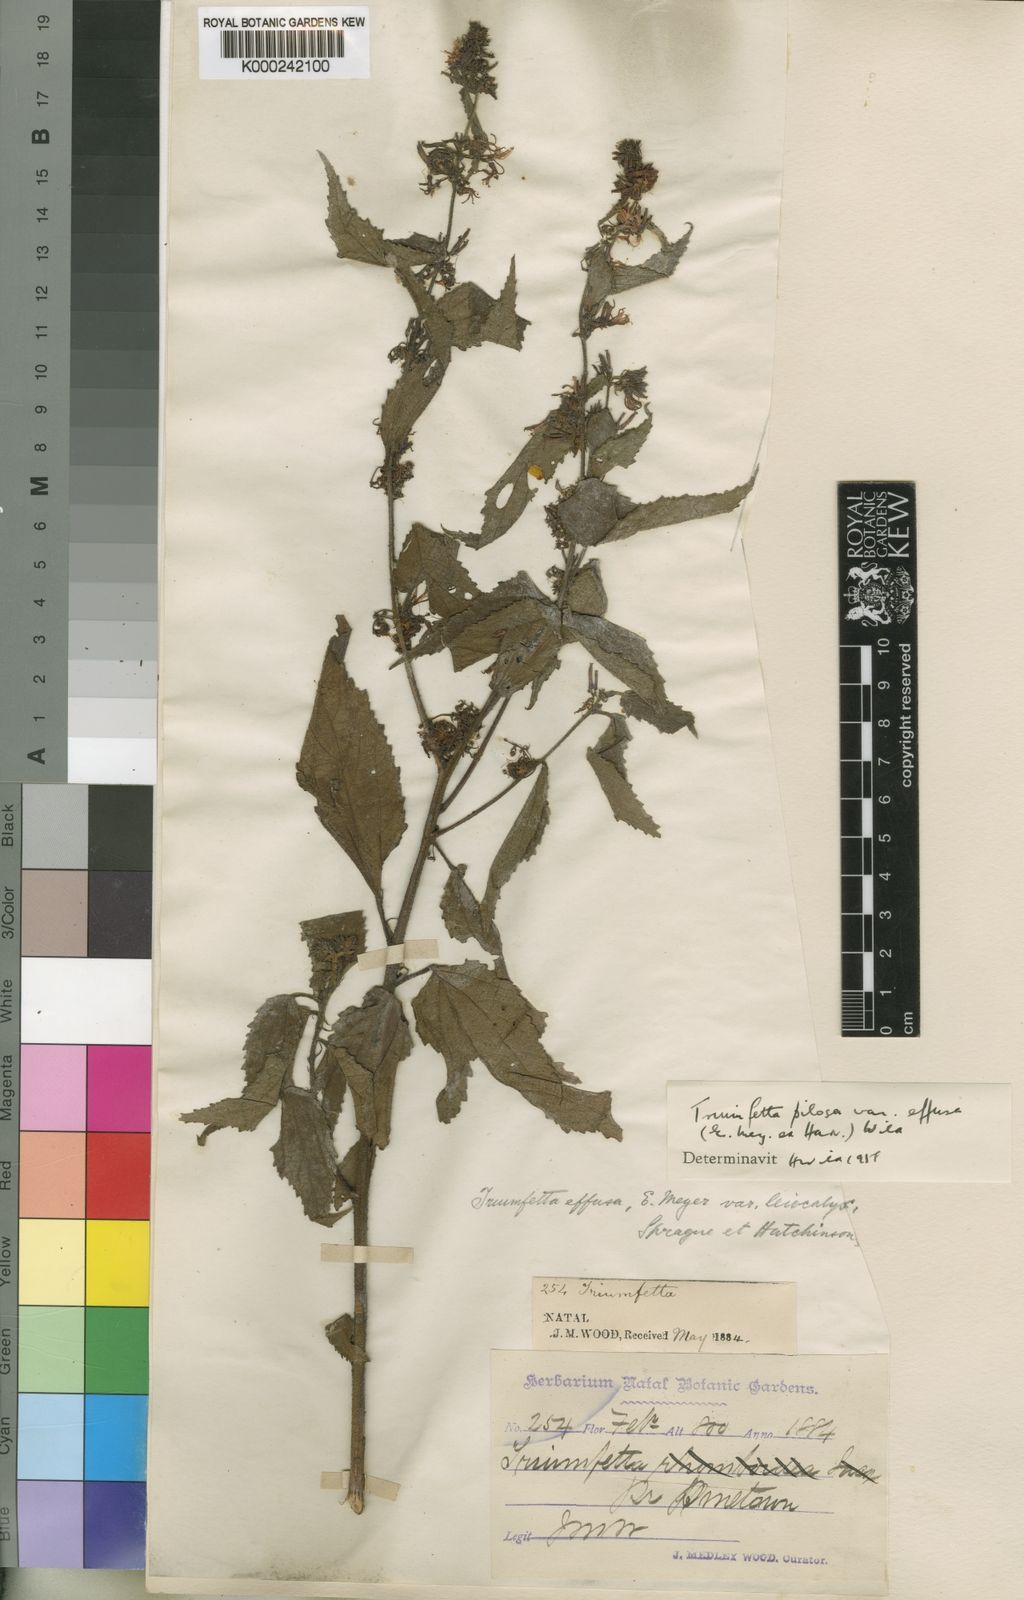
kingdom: Plantae
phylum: Tracheophyta
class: Magnoliopsida
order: Malvales
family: Malvaceae
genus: Triumfetta
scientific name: Triumfetta pilosa
